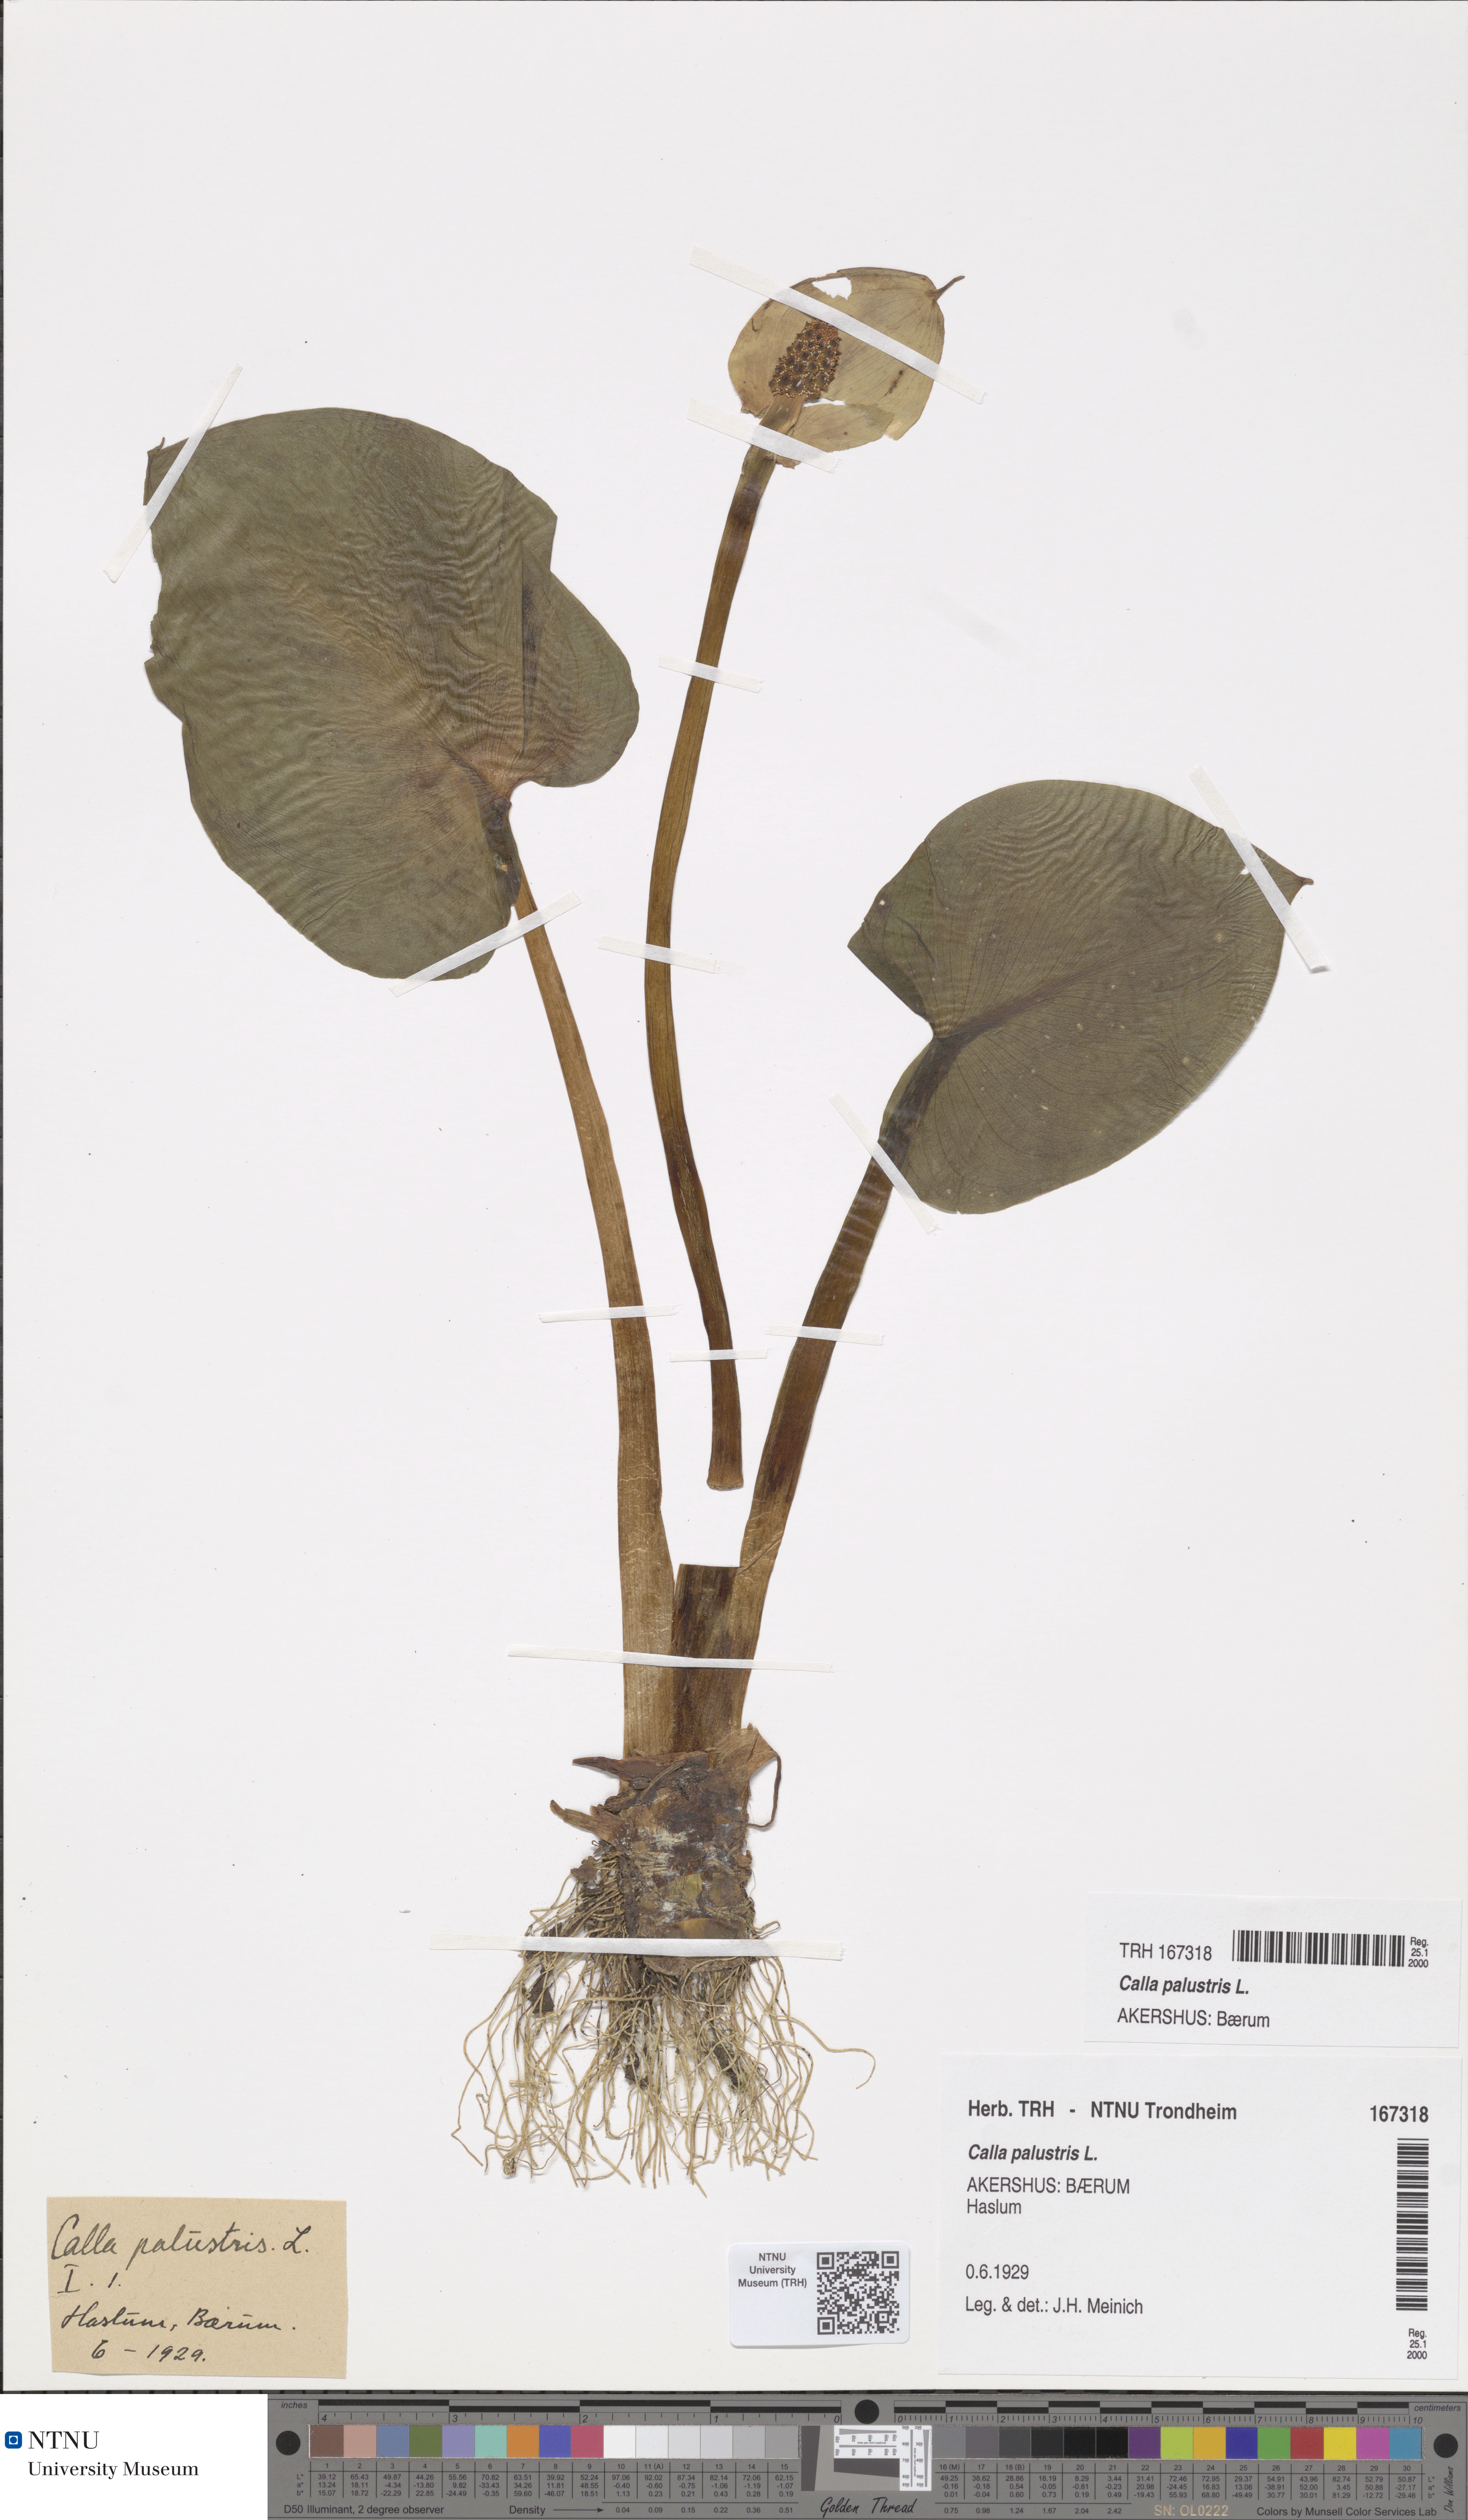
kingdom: Plantae
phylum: Tracheophyta
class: Liliopsida
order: Alismatales
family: Araceae
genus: Calla
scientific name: Calla palustris
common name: Bog arum
